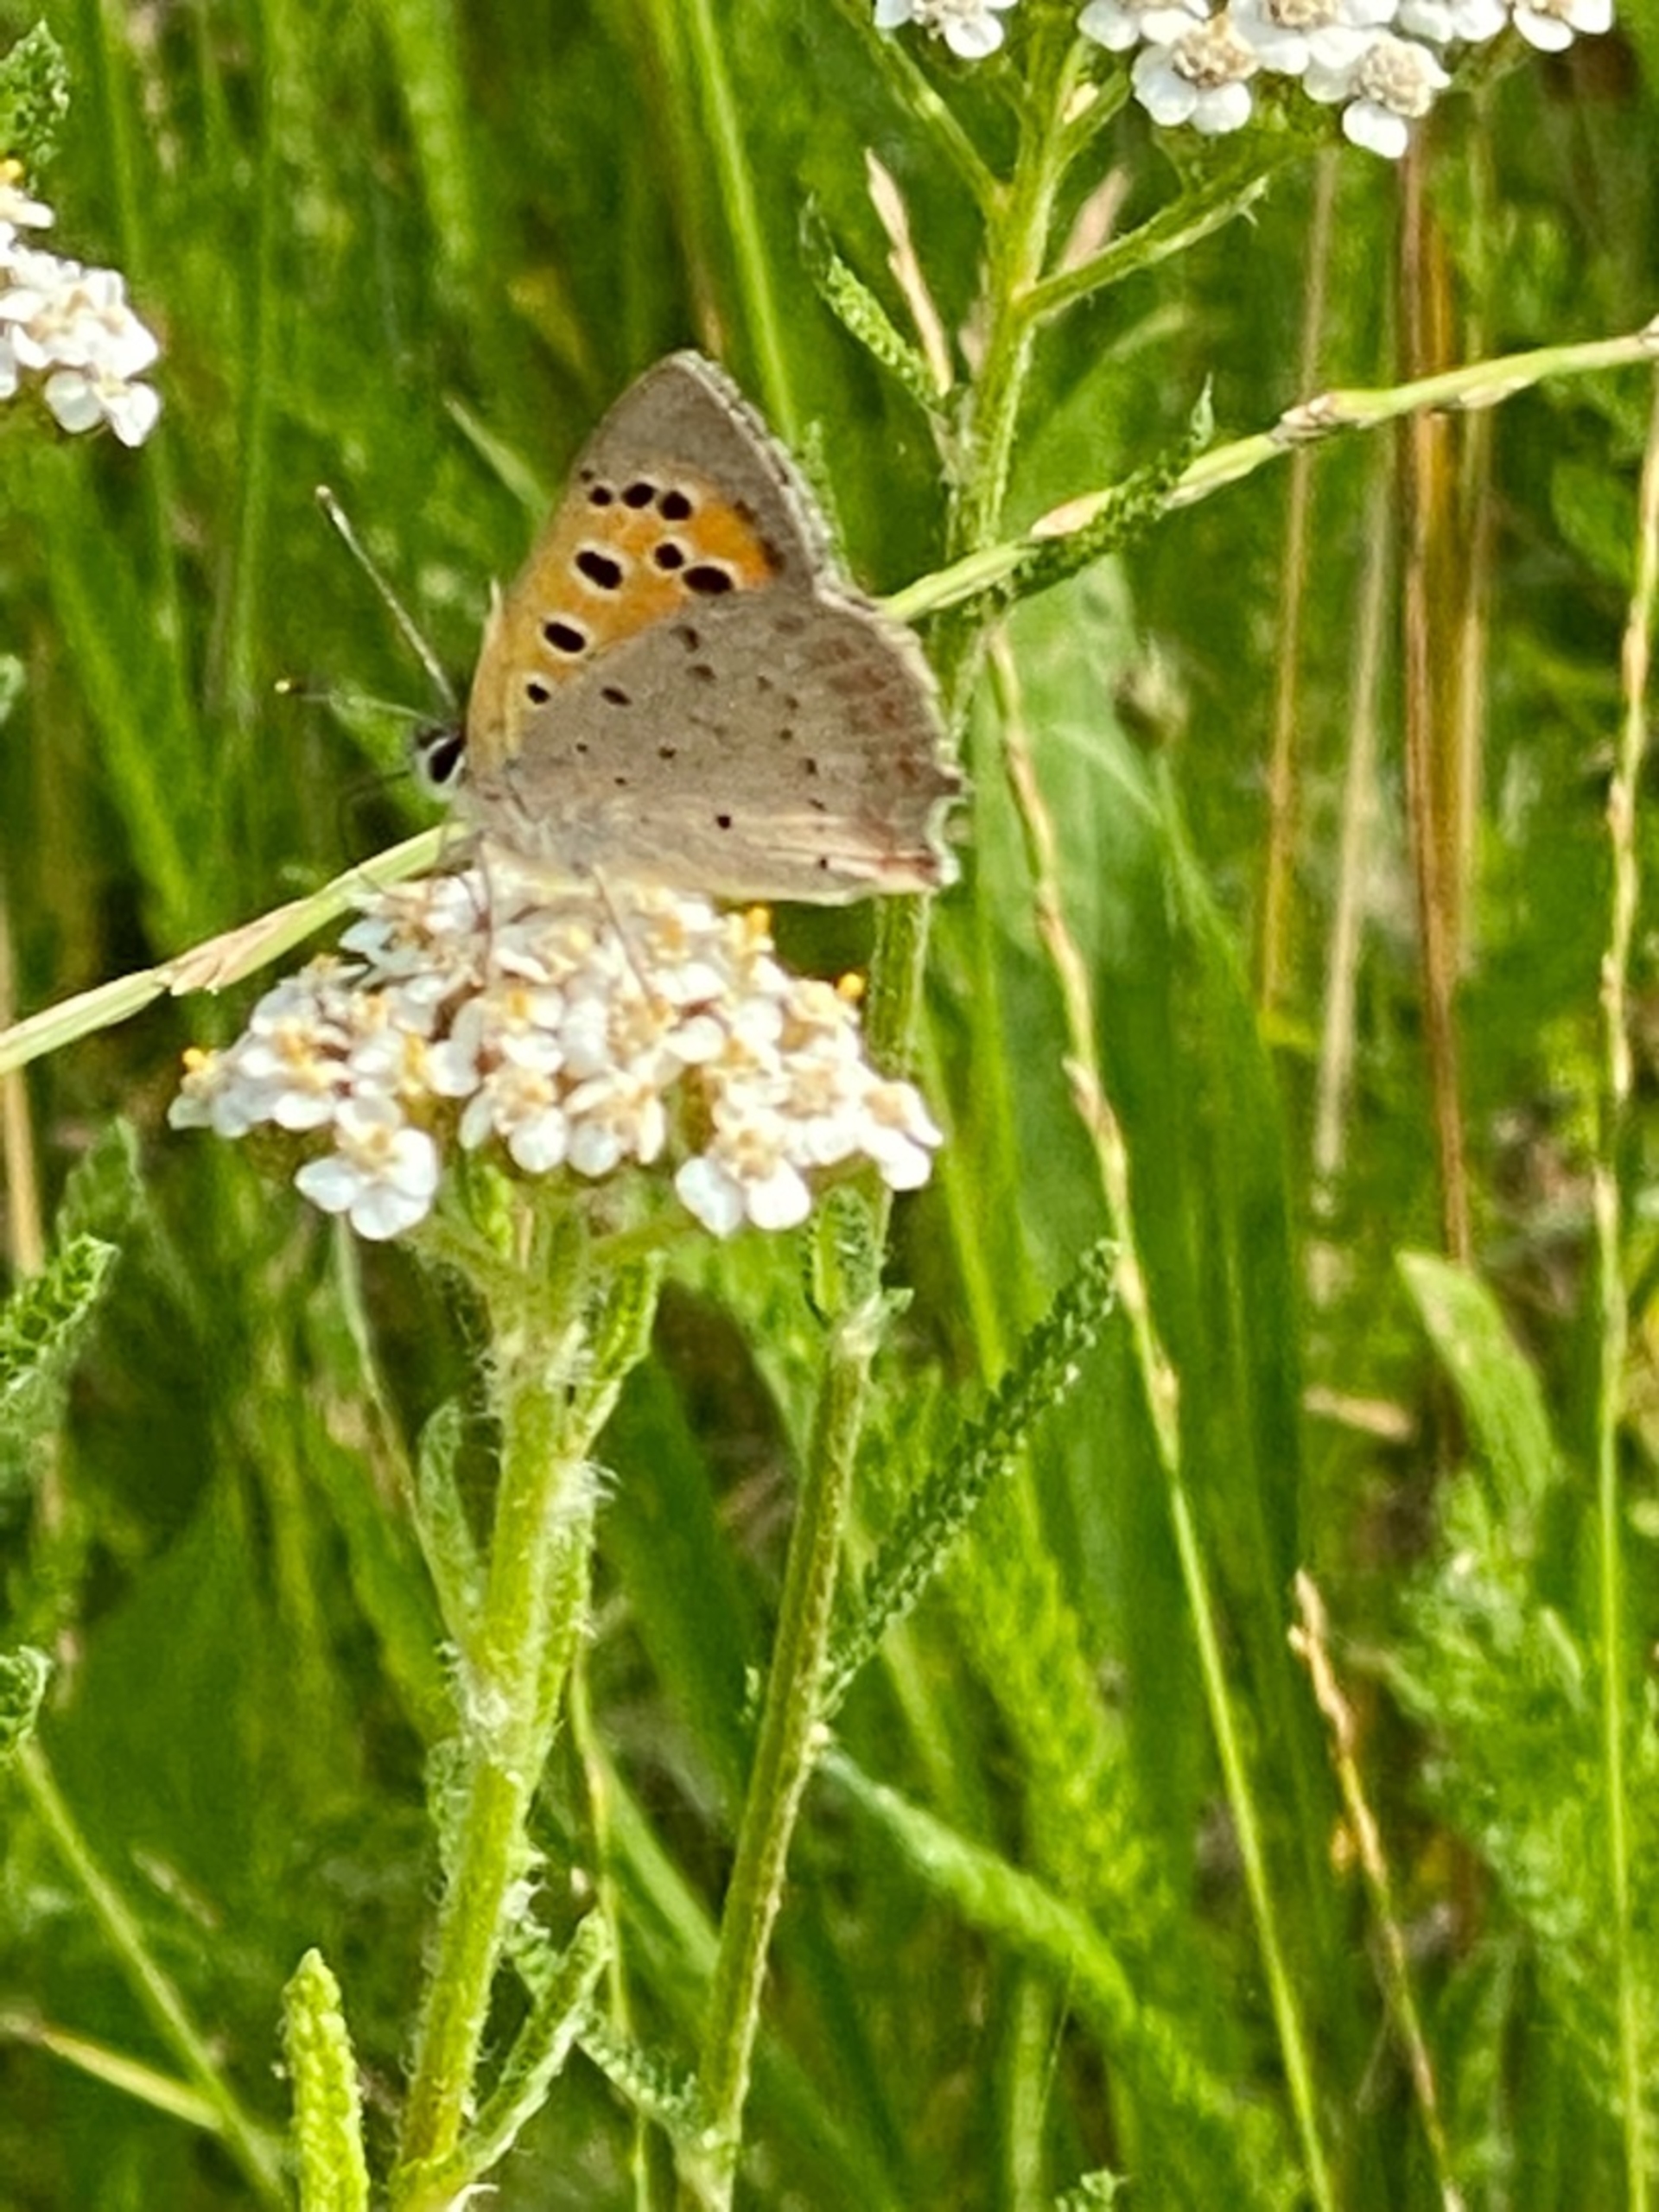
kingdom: Animalia
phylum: Arthropoda
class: Insecta
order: Lepidoptera
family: Lycaenidae
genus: Lycaena
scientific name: Lycaena phlaeas
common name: Lille ildfugl
